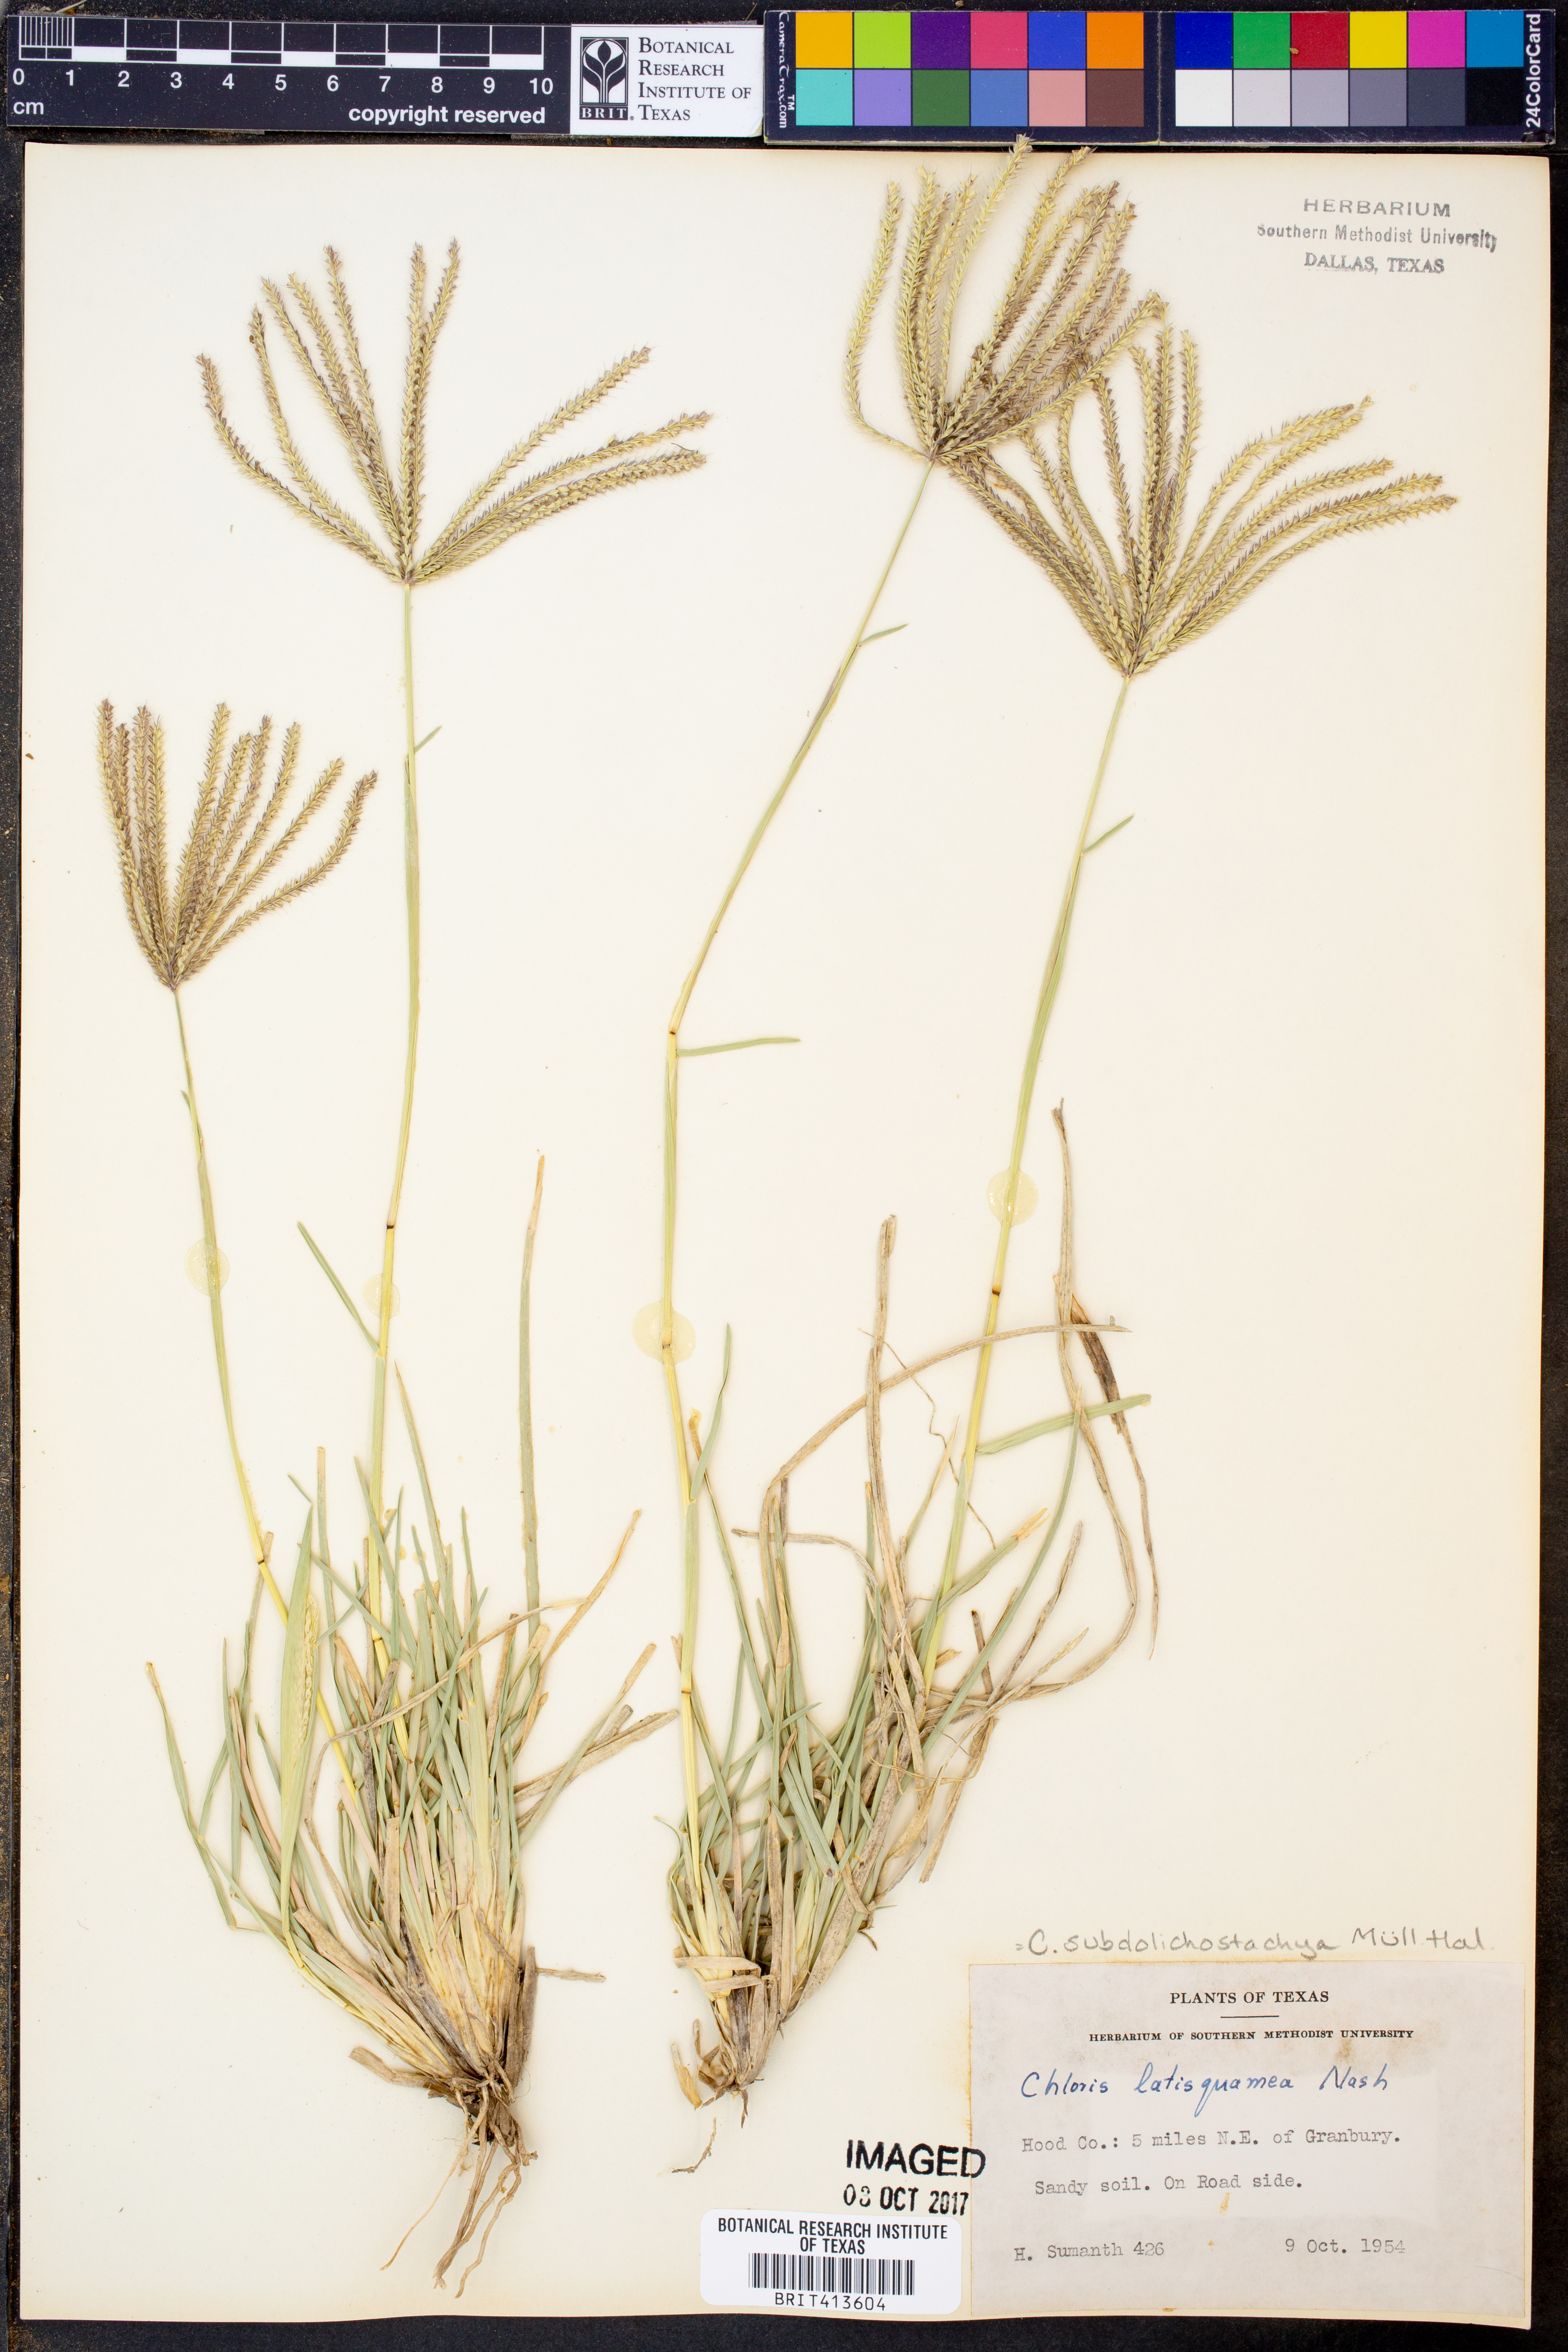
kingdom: Plantae
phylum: Tracheophyta
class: Liliopsida
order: Poales
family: Poaceae
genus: Chloris
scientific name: Chloris subdolichostachya
